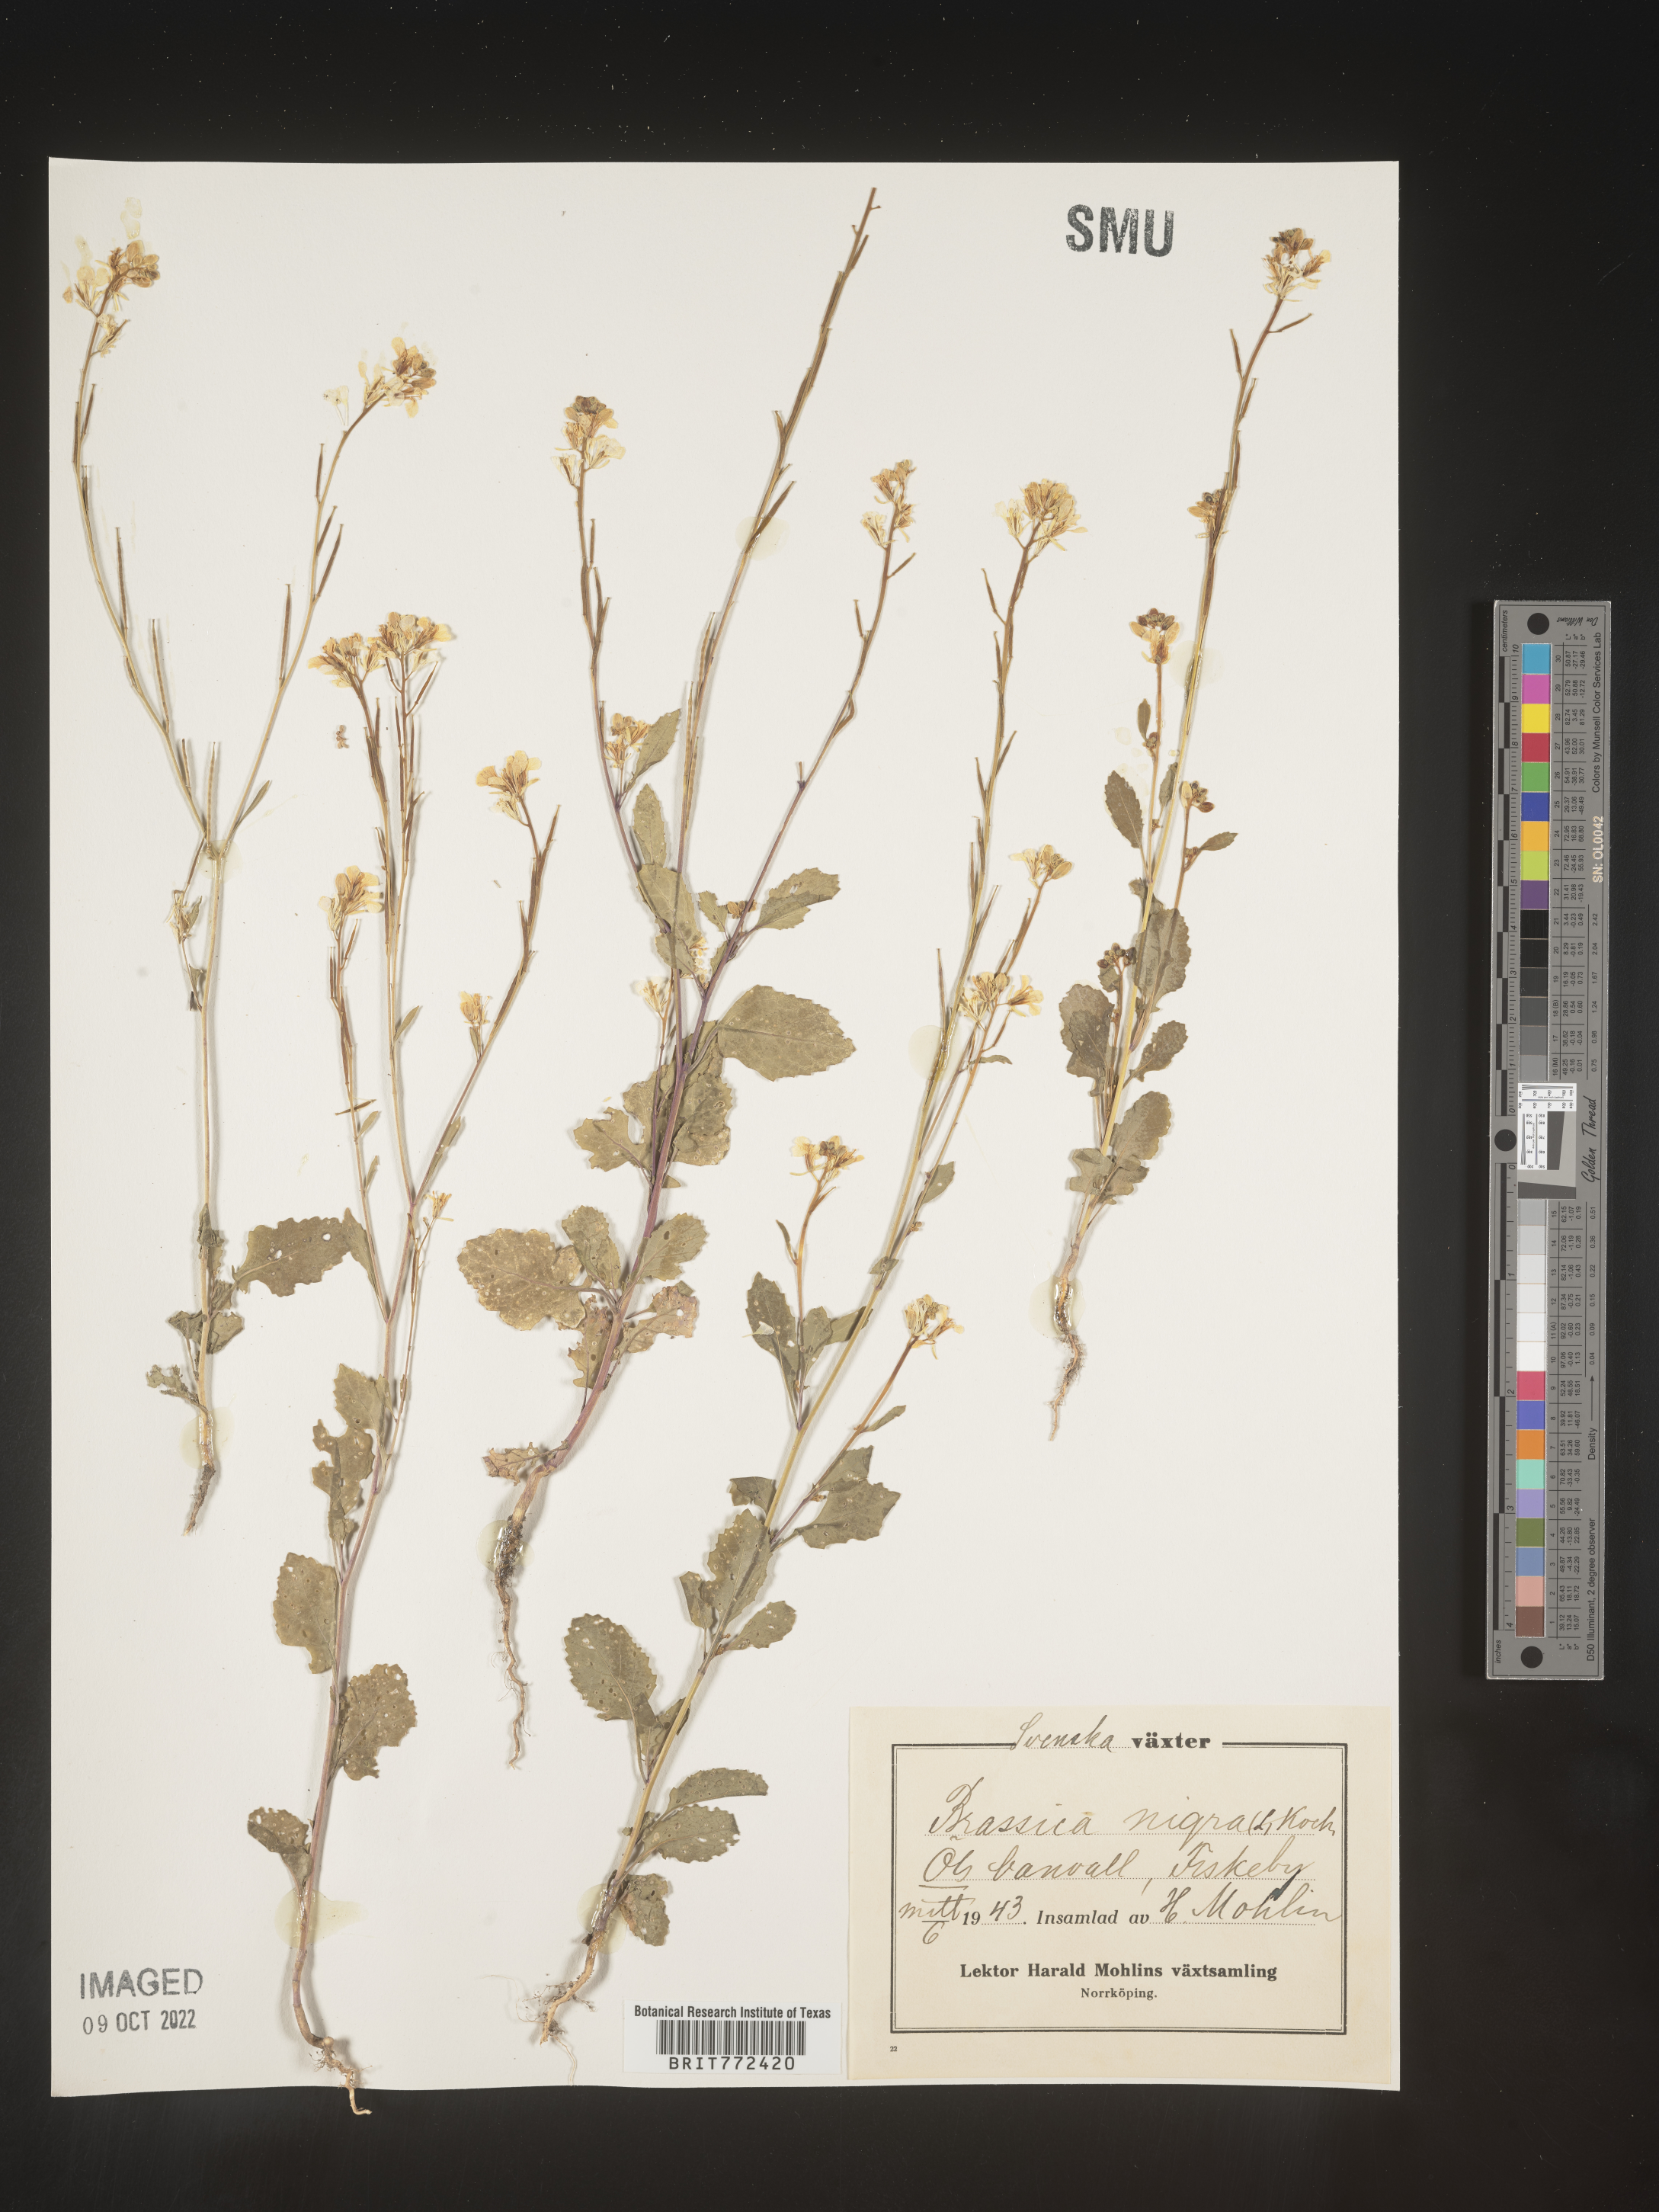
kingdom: Plantae
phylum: Tracheophyta
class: Magnoliopsida
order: Brassicales
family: Brassicaceae
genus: Brassica
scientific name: Brassica
